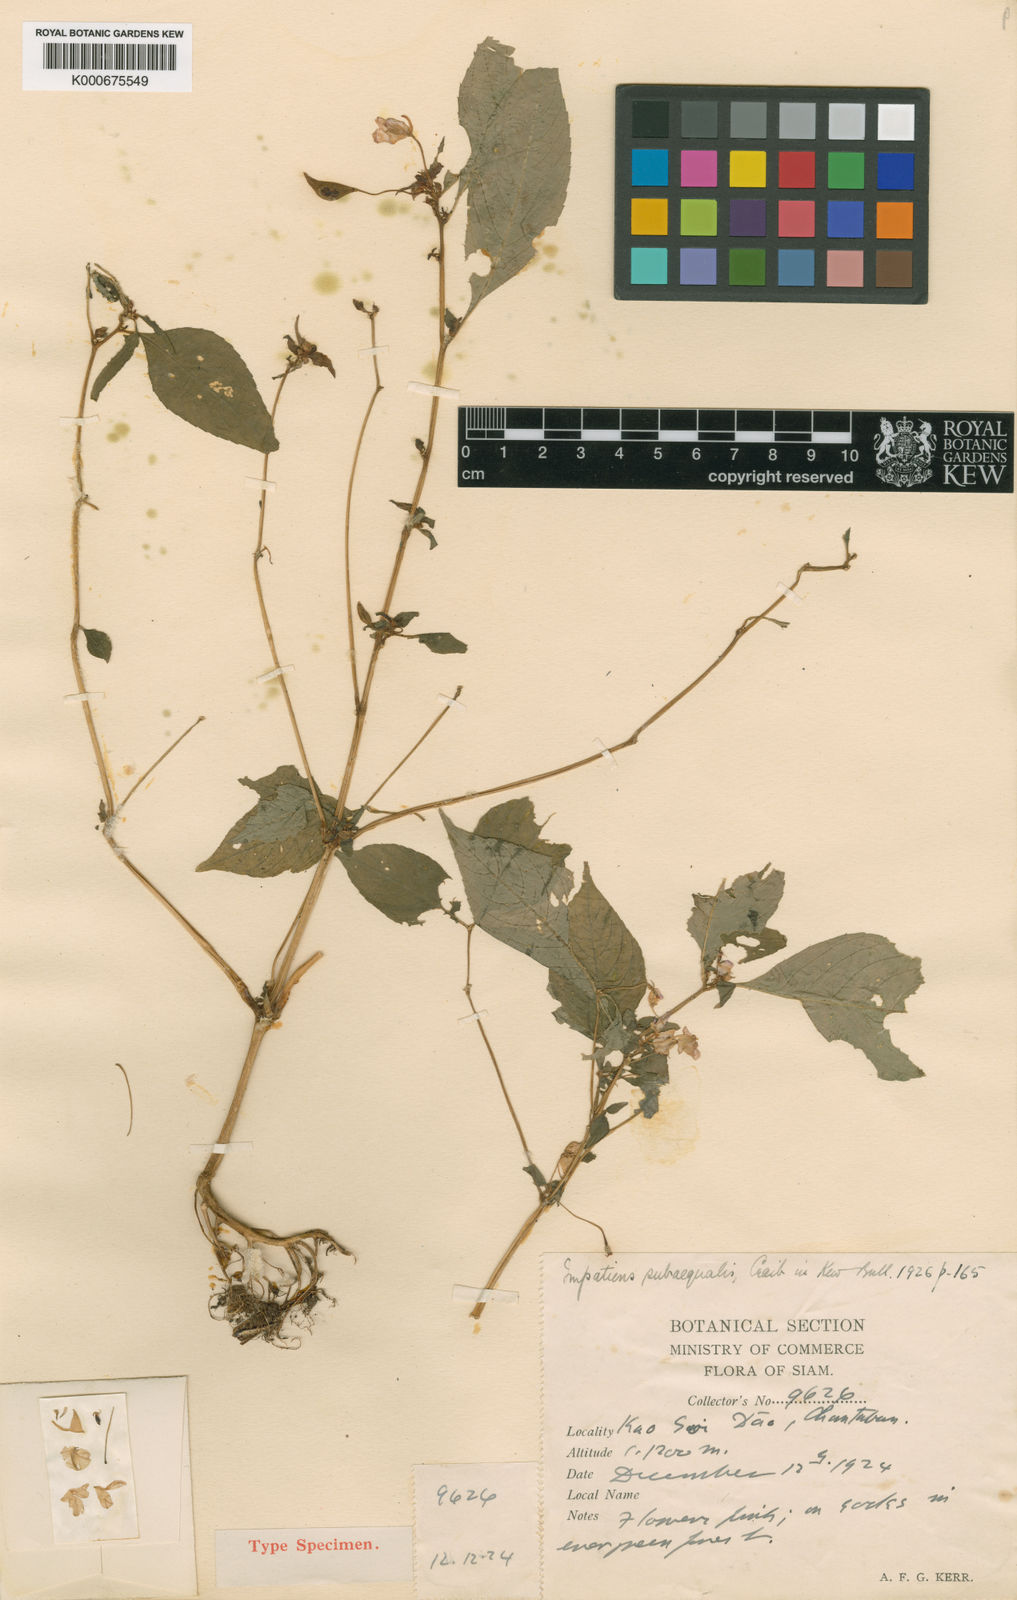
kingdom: Plantae
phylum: Tracheophyta
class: Magnoliopsida
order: Ericales
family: Balsaminaceae
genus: Impatiens
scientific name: Impatiens subaequalis
